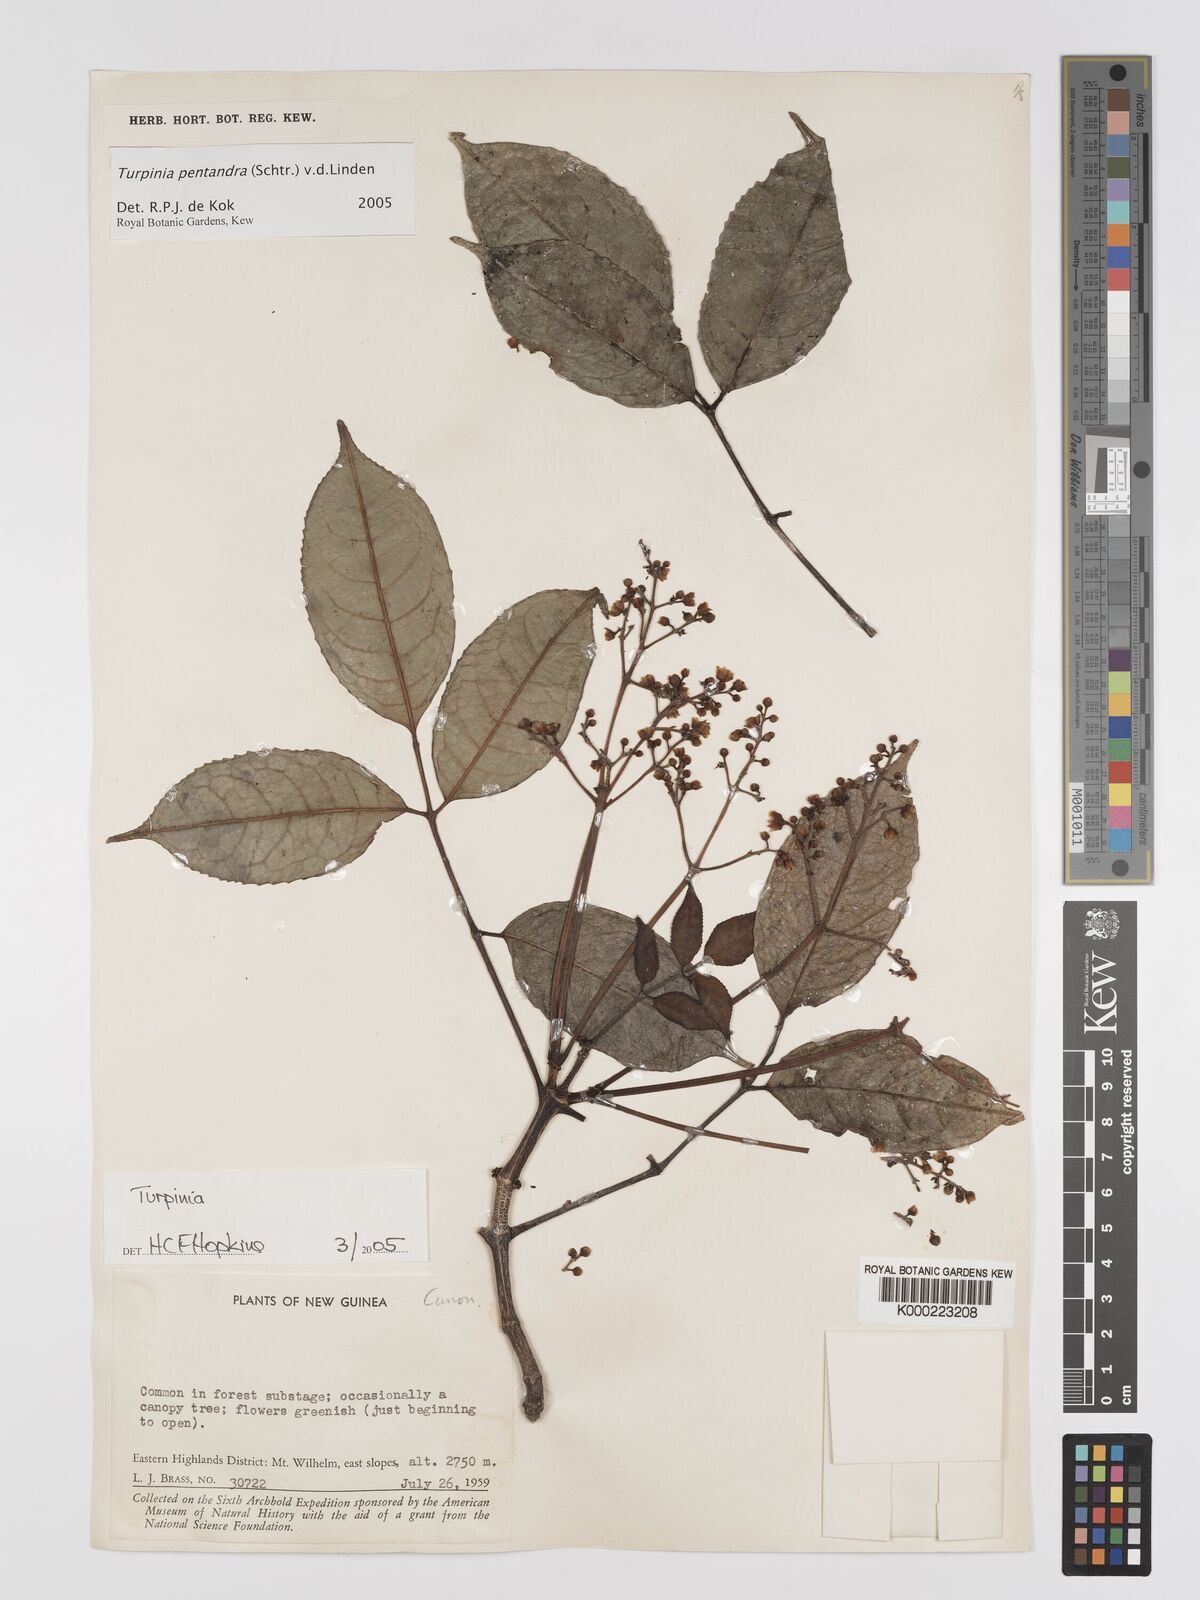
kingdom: Plantae
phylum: Tracheophyta
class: Magnoliopsida
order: Crossosomatales
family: Staphyleaceae
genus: Turpinia
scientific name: Turpinia pentandra
